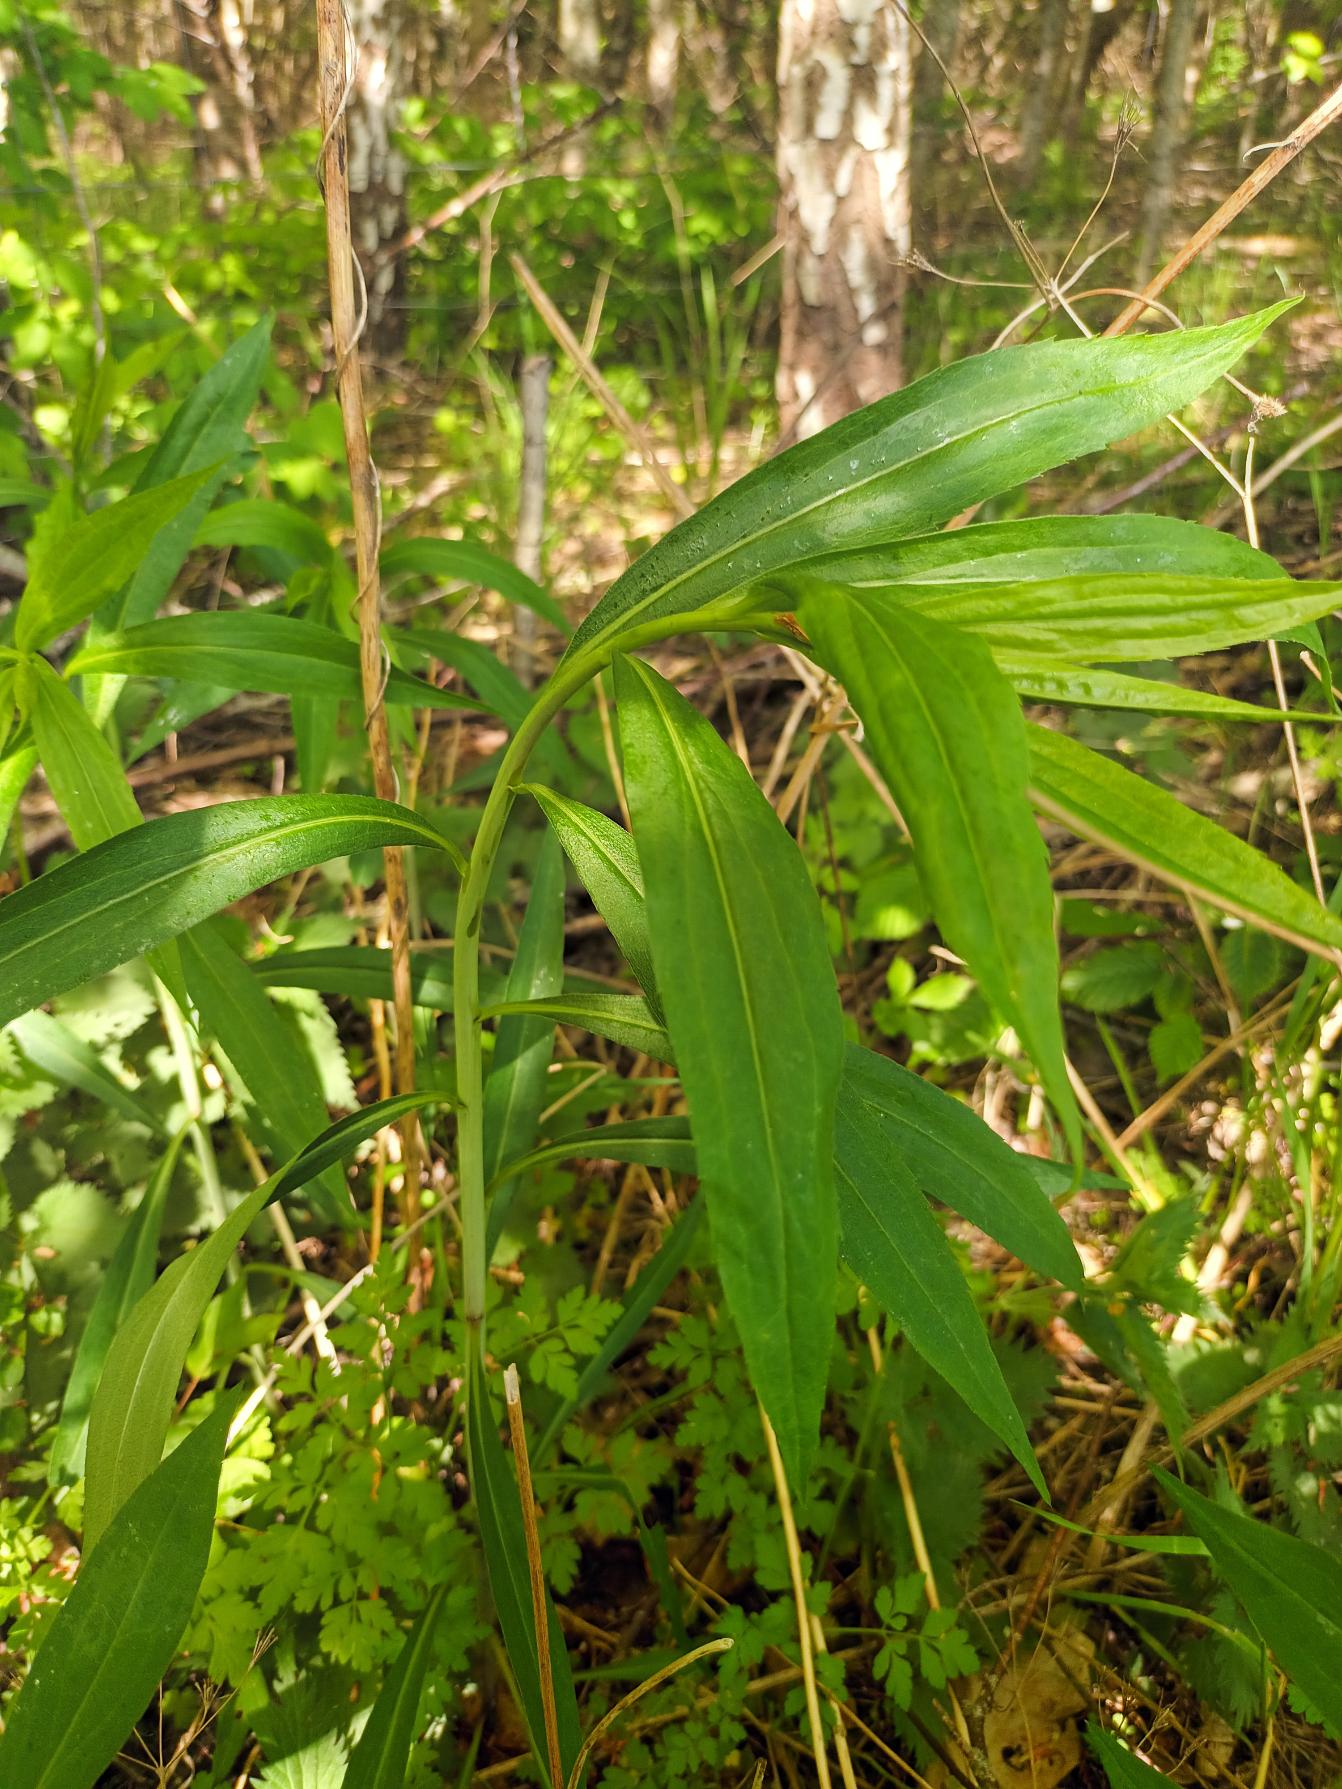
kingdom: Plantae
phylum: Tracheophyta
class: Magnoliopsida
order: Asterales
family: Asteraceae
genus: Solidago
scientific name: Solidago gigantea
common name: Sildig gyldenris
